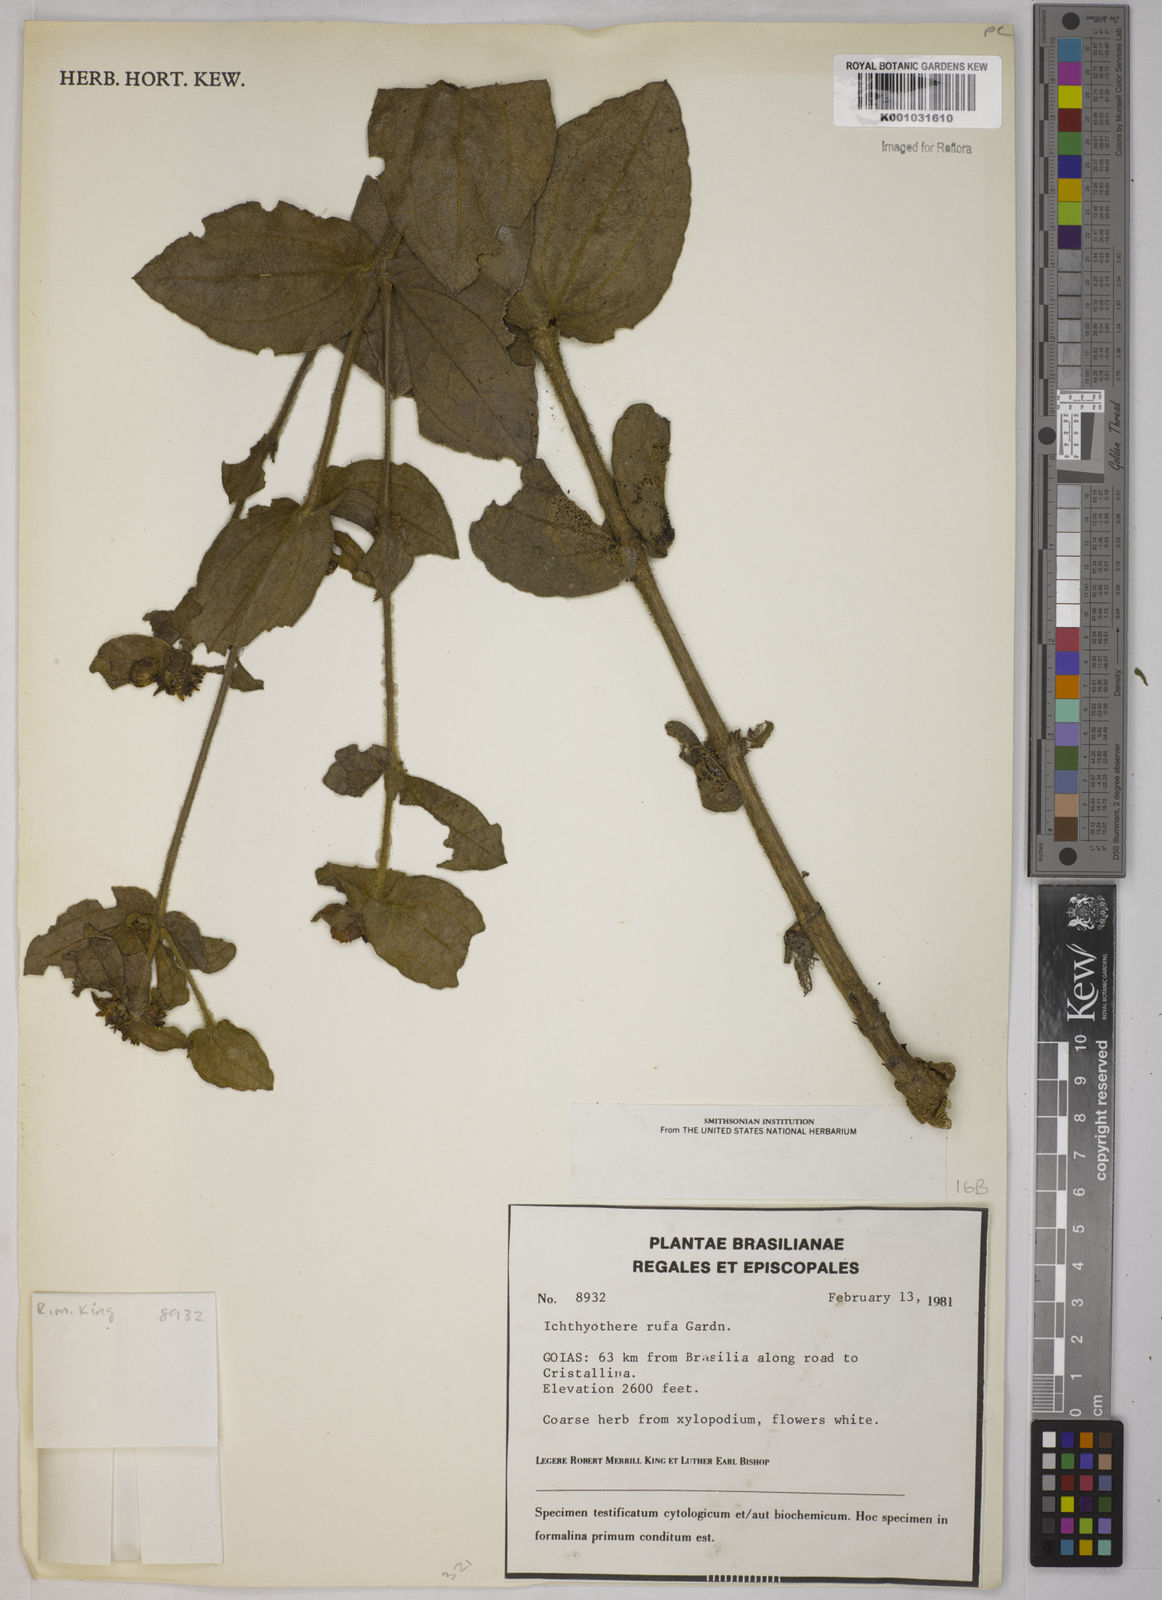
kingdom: Plantae
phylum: Tracheophyta
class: Magnoliopsida
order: Asterales
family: Asteraceae
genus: Ichthyothere
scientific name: Ichthyothere rufa
